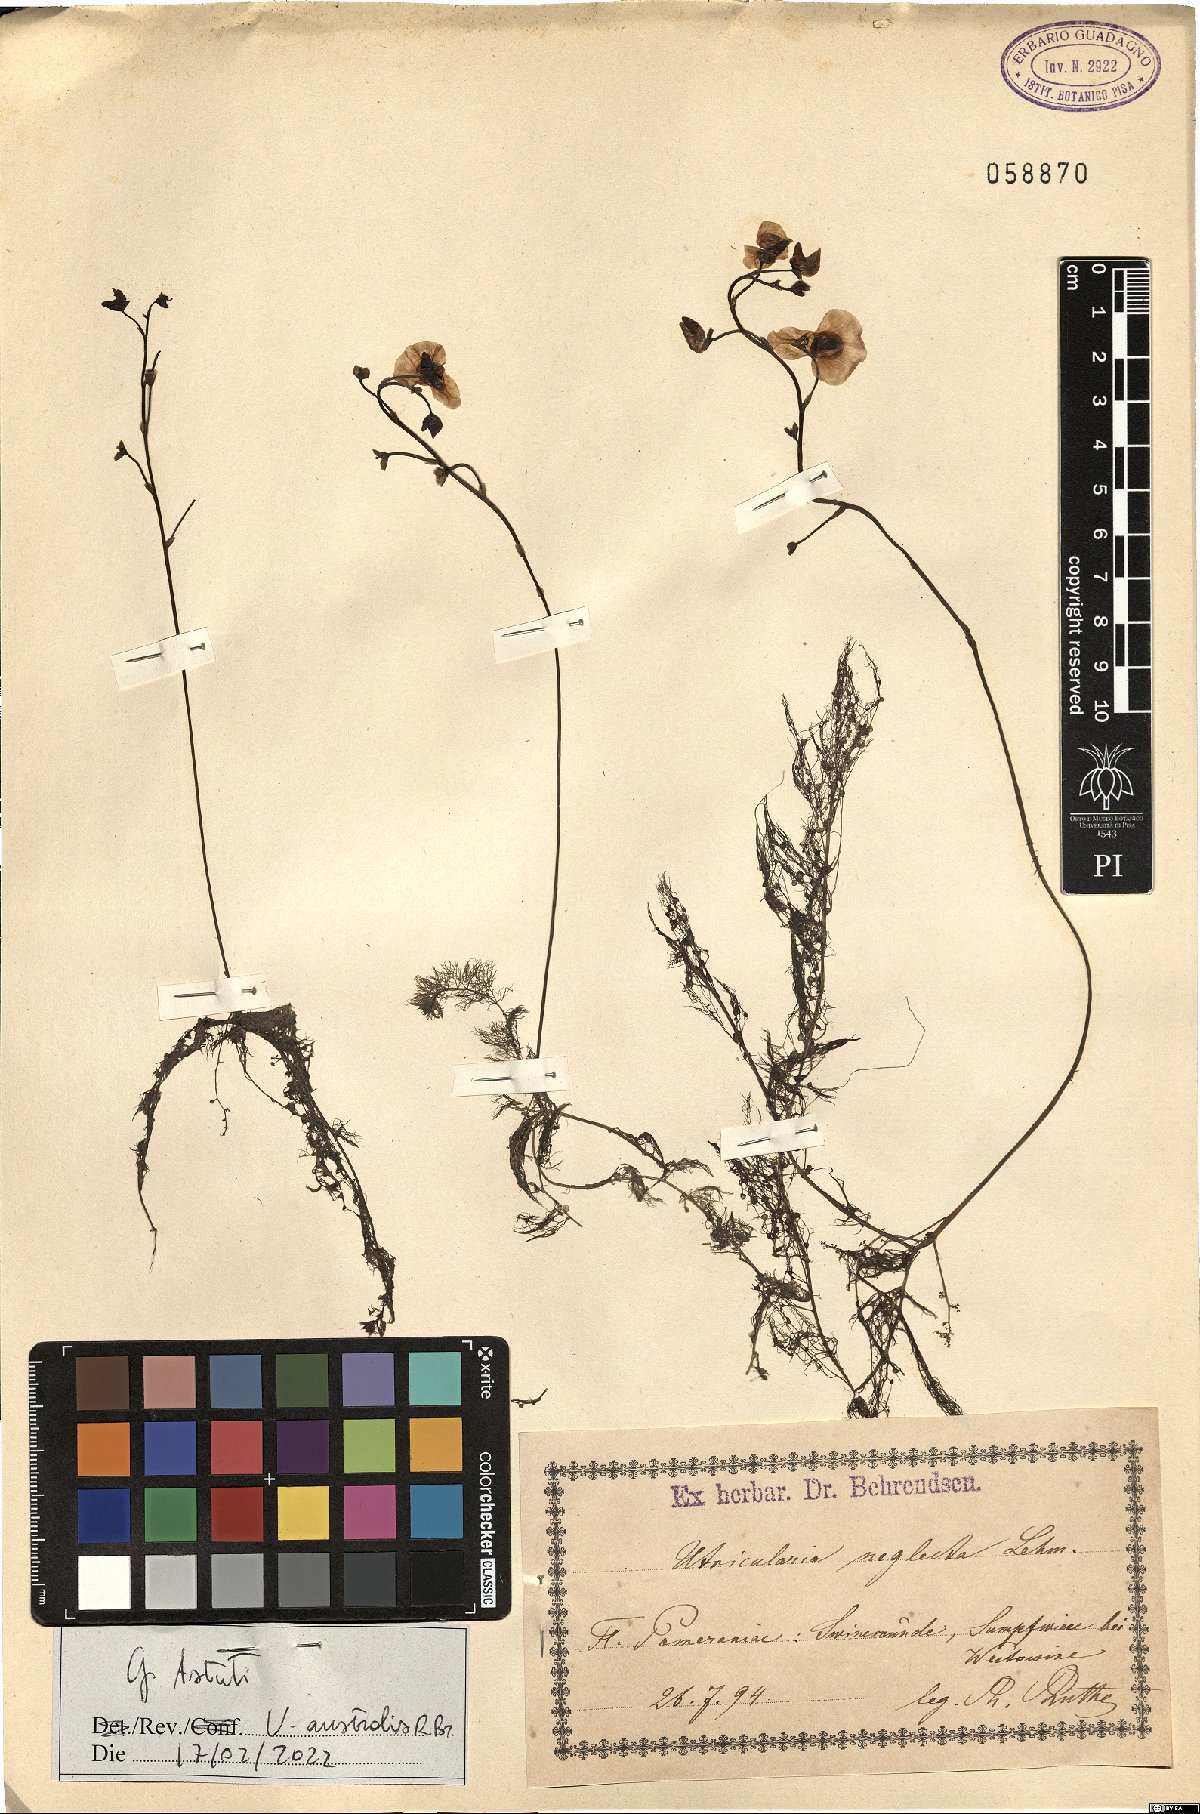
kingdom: Plantae
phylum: Tracheophyta
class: Magnoliopsida
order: Lamiales
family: Lentibulariaceae
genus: Utricularia
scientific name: Utricularia australis
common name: Bladderwort
